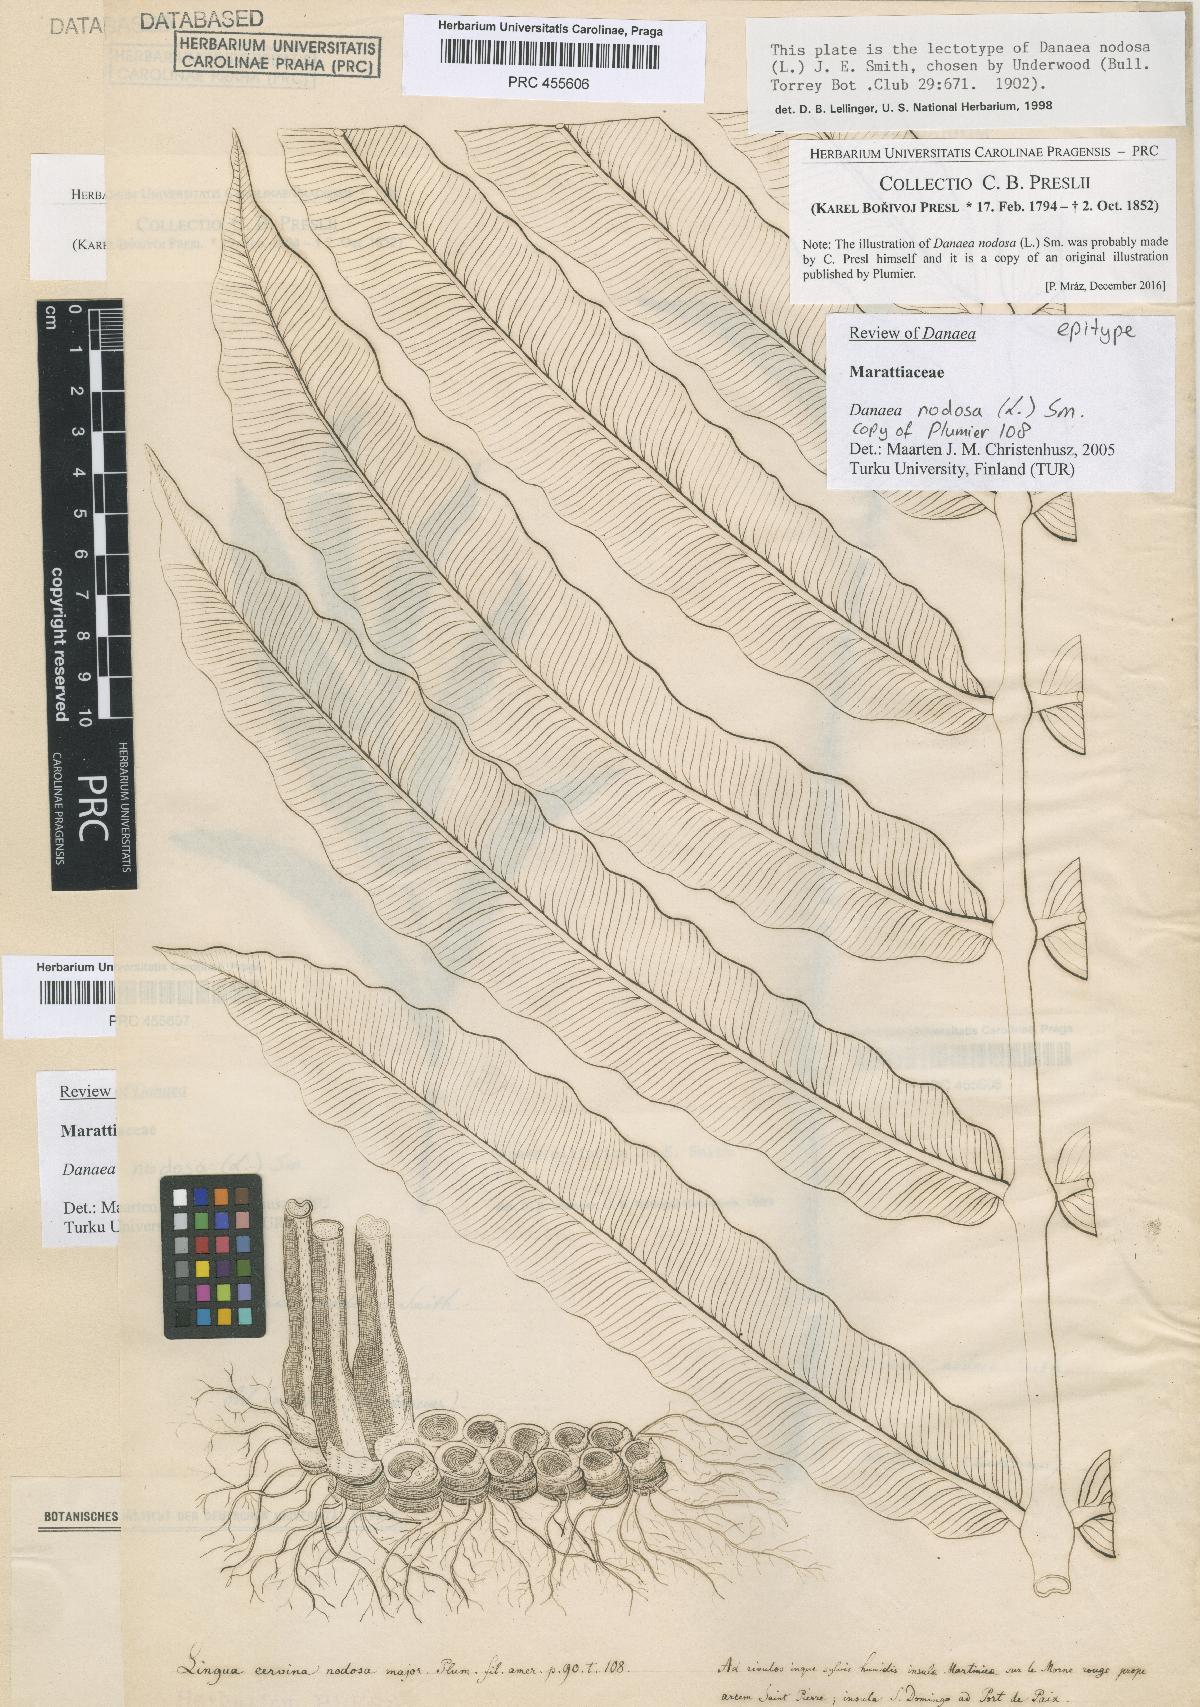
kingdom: Plantae
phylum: Tracheophyta
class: Polypodiopsida
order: Marattiales
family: Marattiaceae
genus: Danaea
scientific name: Danaea nodosa
